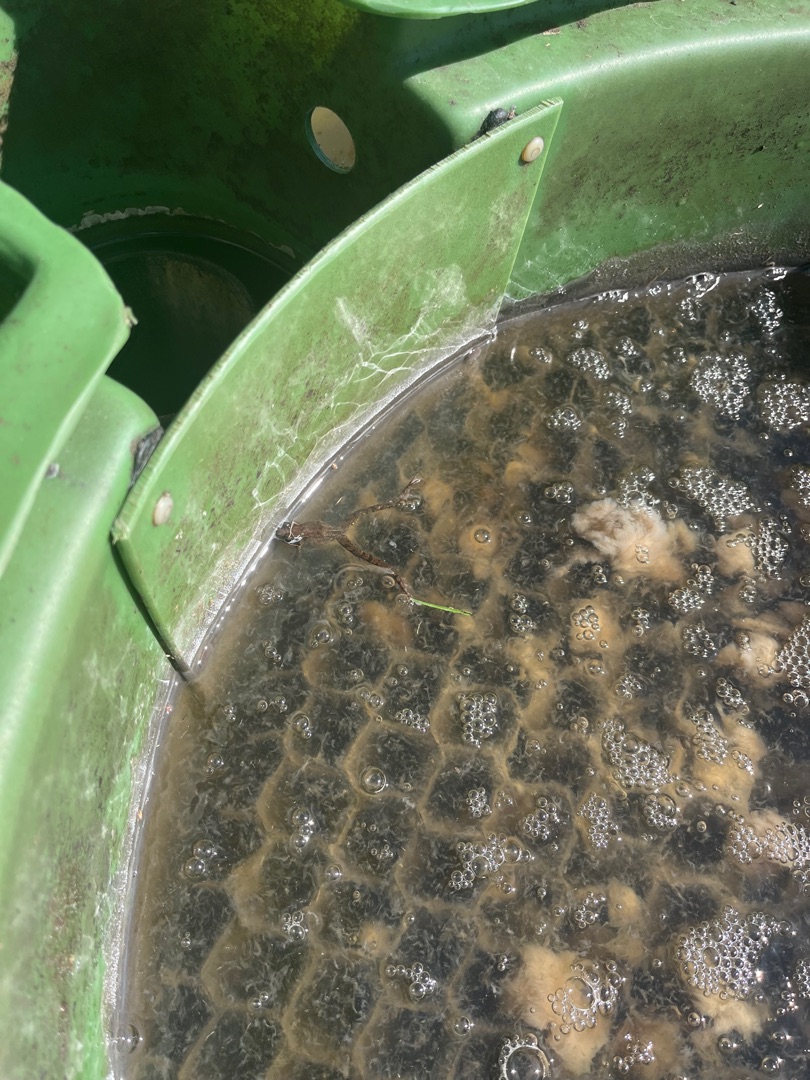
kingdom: Animalia
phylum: Chordata
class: Amphibia
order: Anura
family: Ranidae
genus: Rana
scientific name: Rana temporaria
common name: Butsnudet frø
